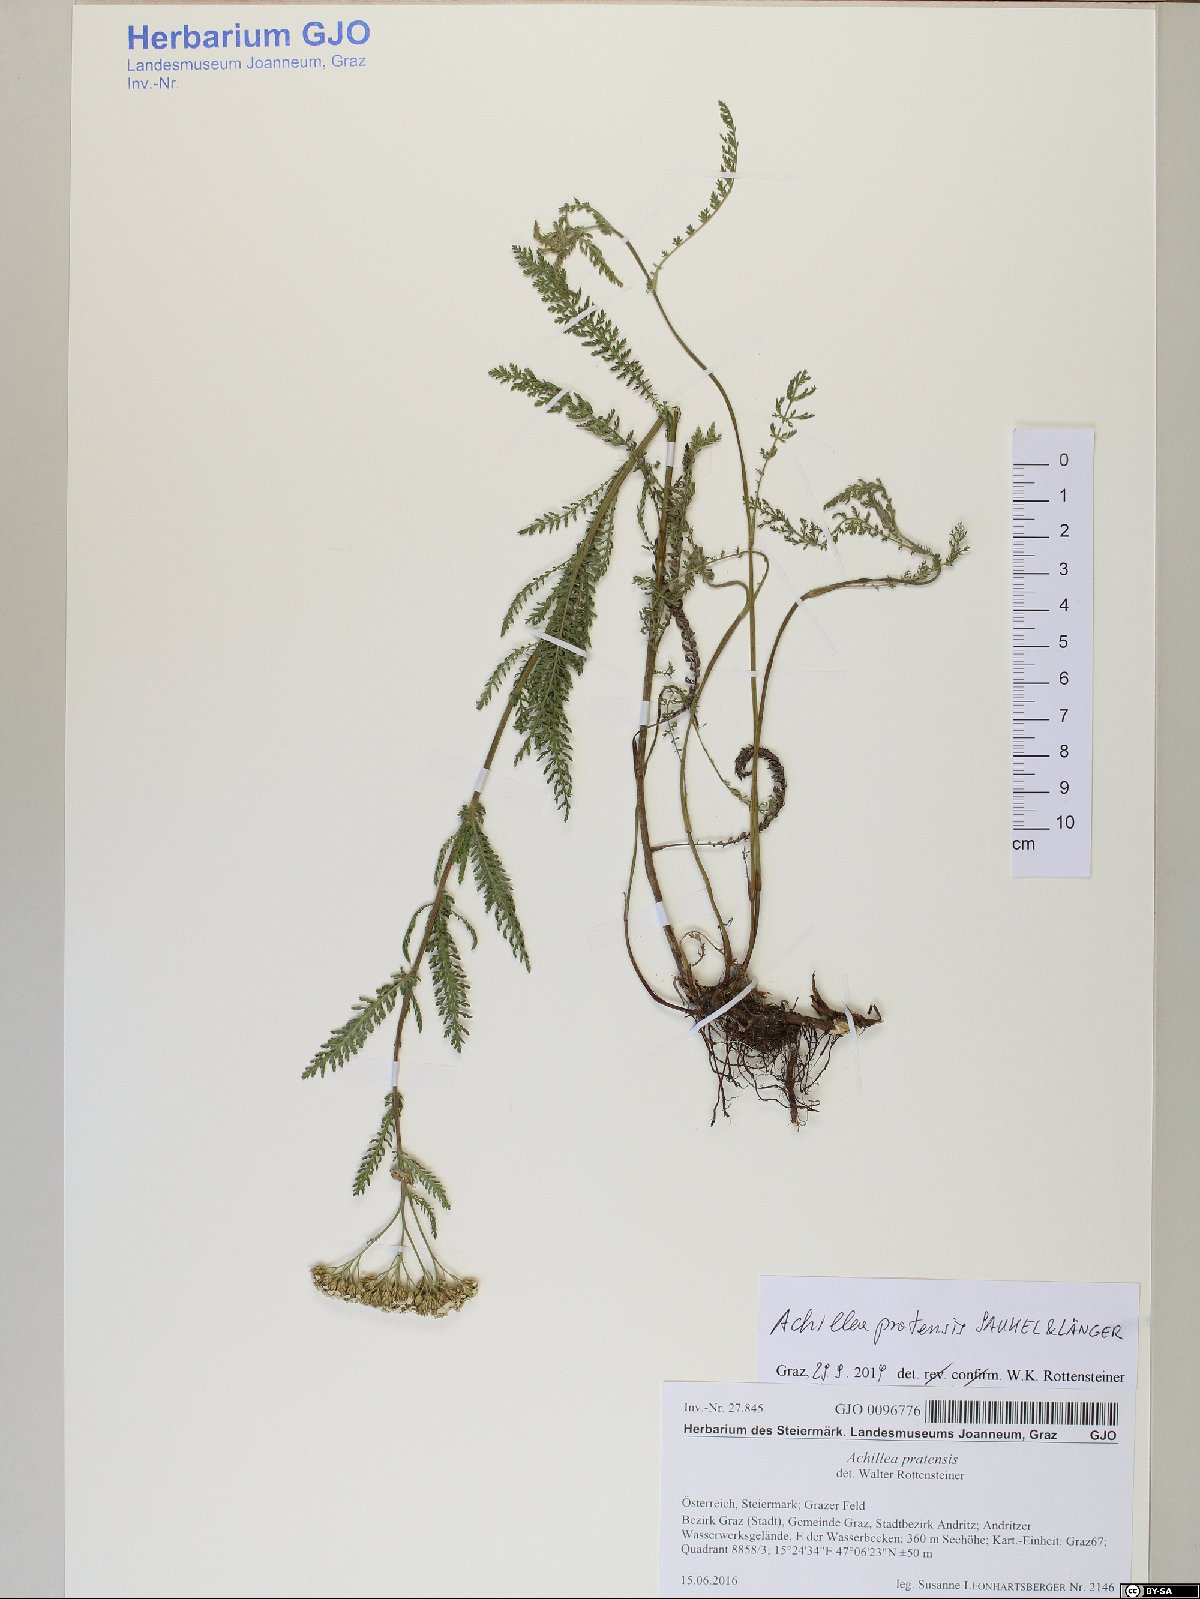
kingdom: Plantae
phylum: Tracheophyta
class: Magnoliopsida
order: Asterales
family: Asteraceae
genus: Achillea
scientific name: Achillea pratensis
